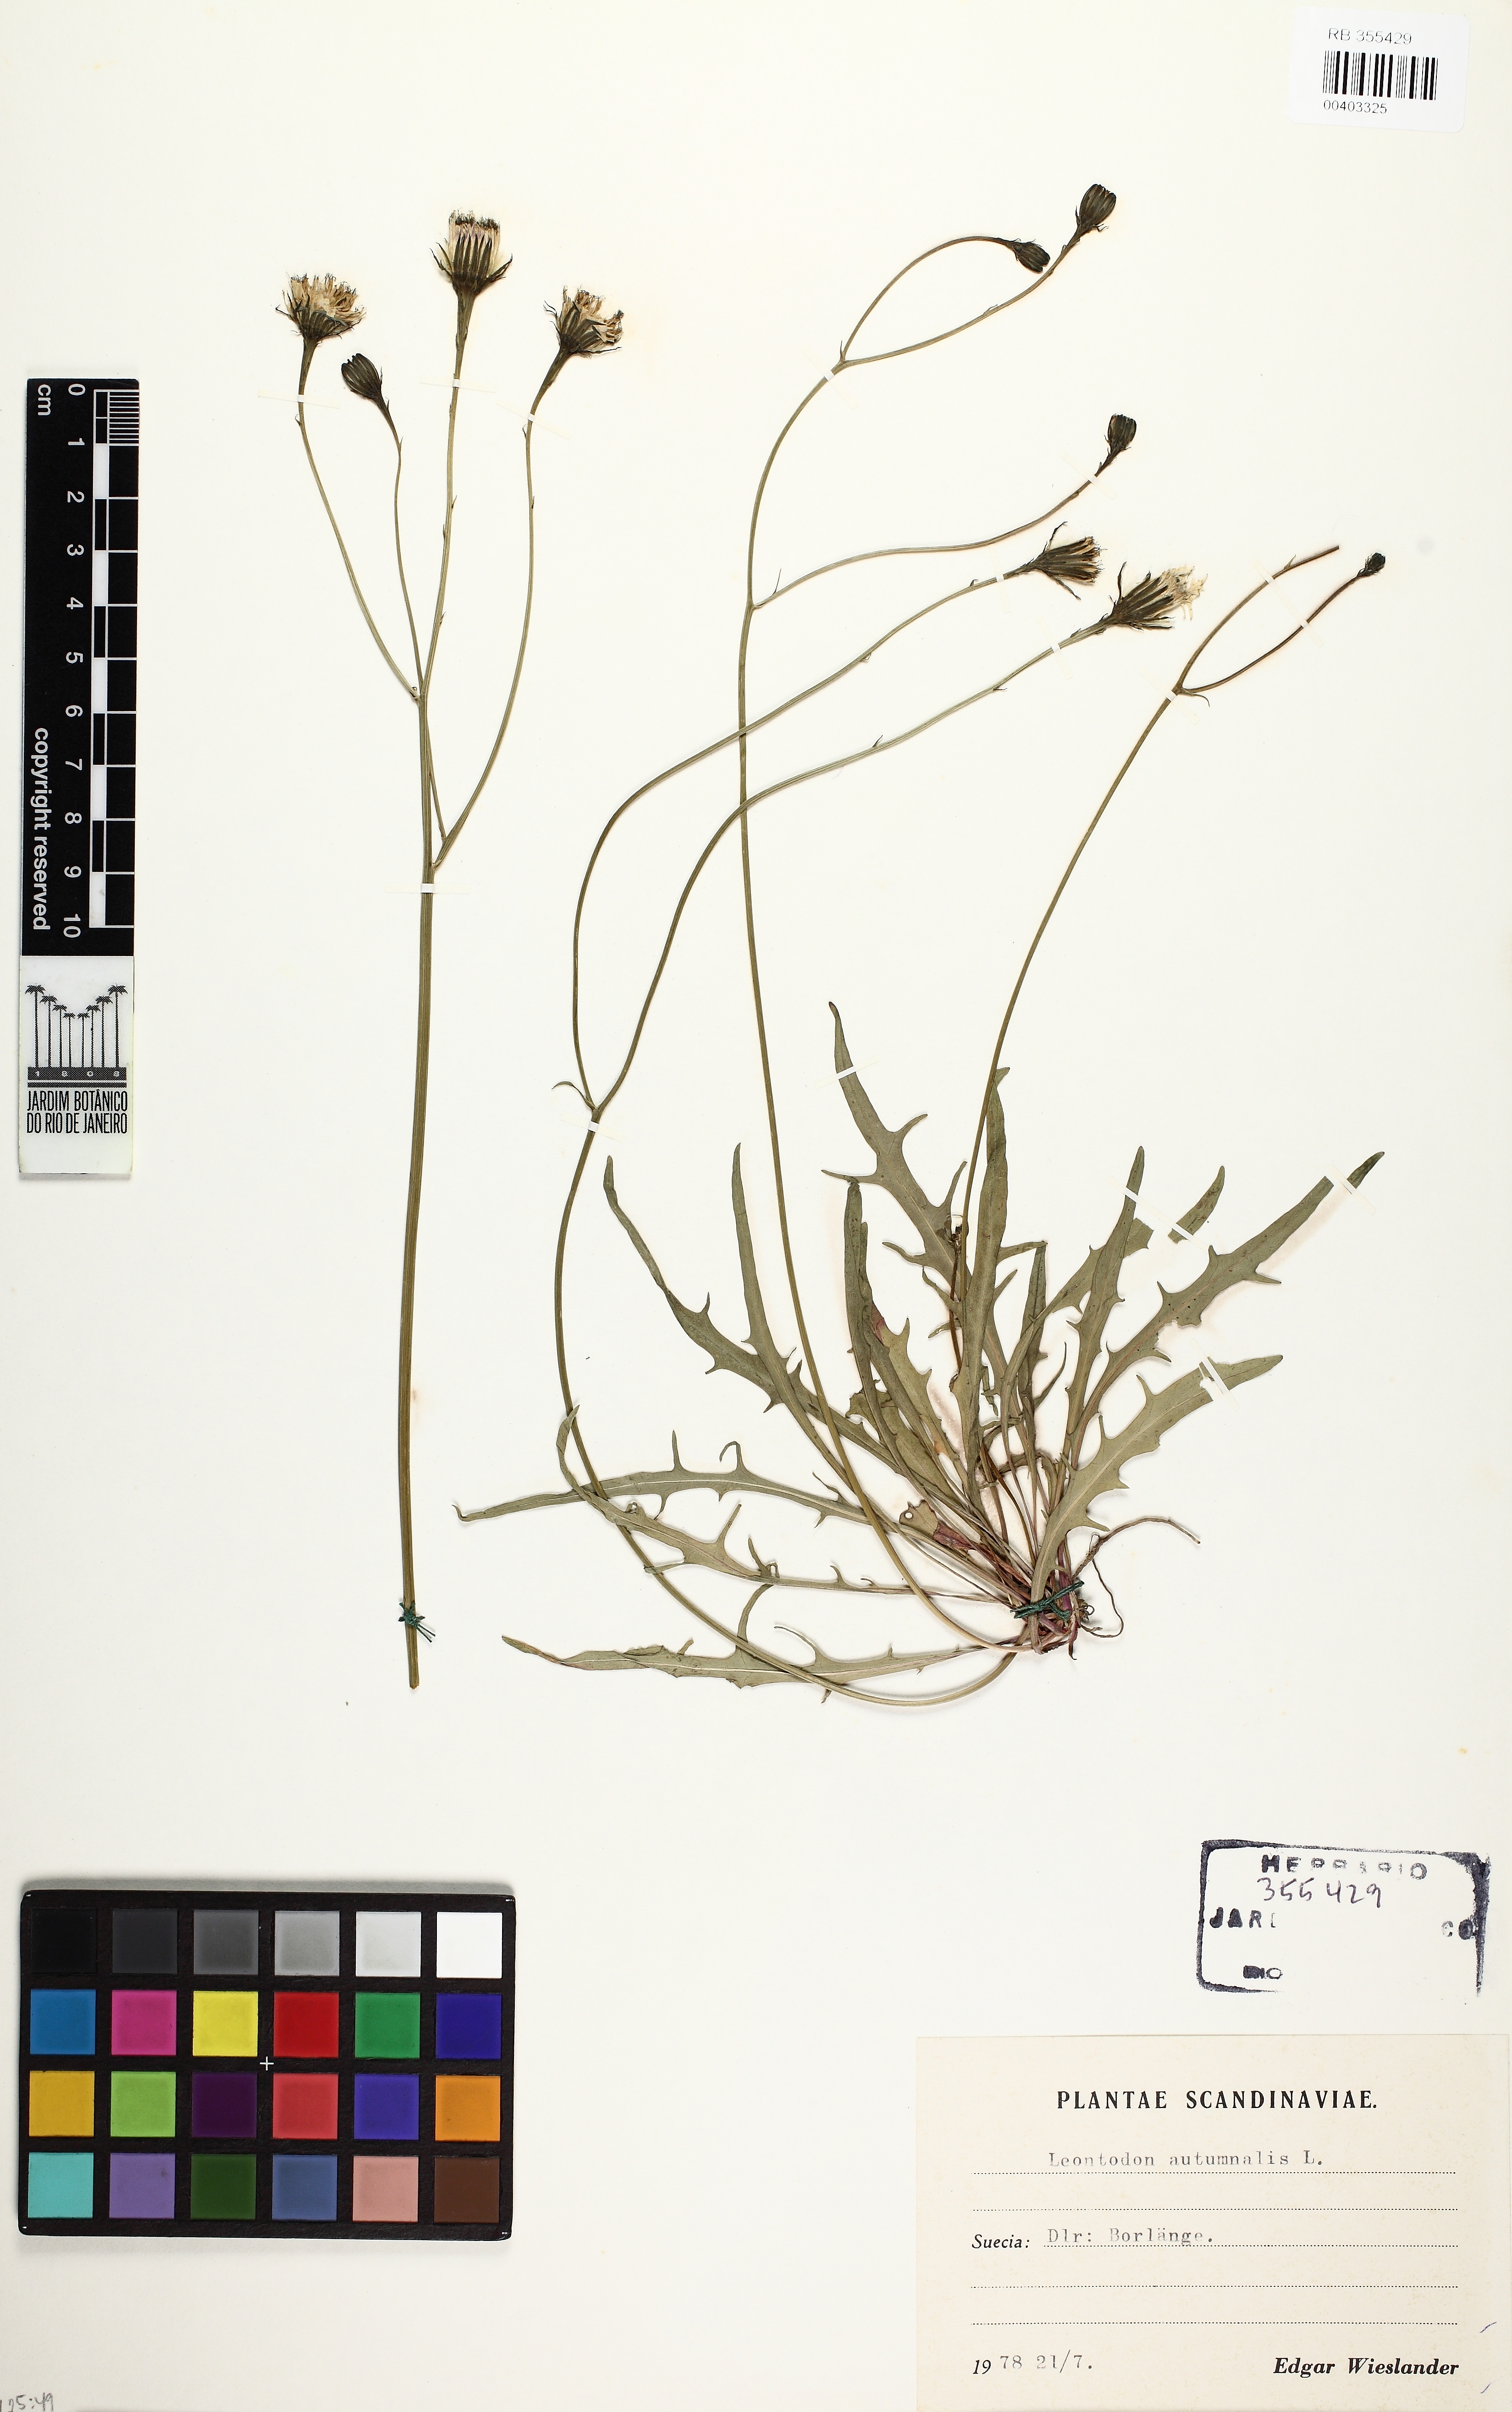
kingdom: Plantae
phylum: Tracheophyta
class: Magnoliopsida
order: Asterales
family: Asteraceae
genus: Scorzoneroides
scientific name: Scorzoneroides autumnalis
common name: Autumn hawkbit
